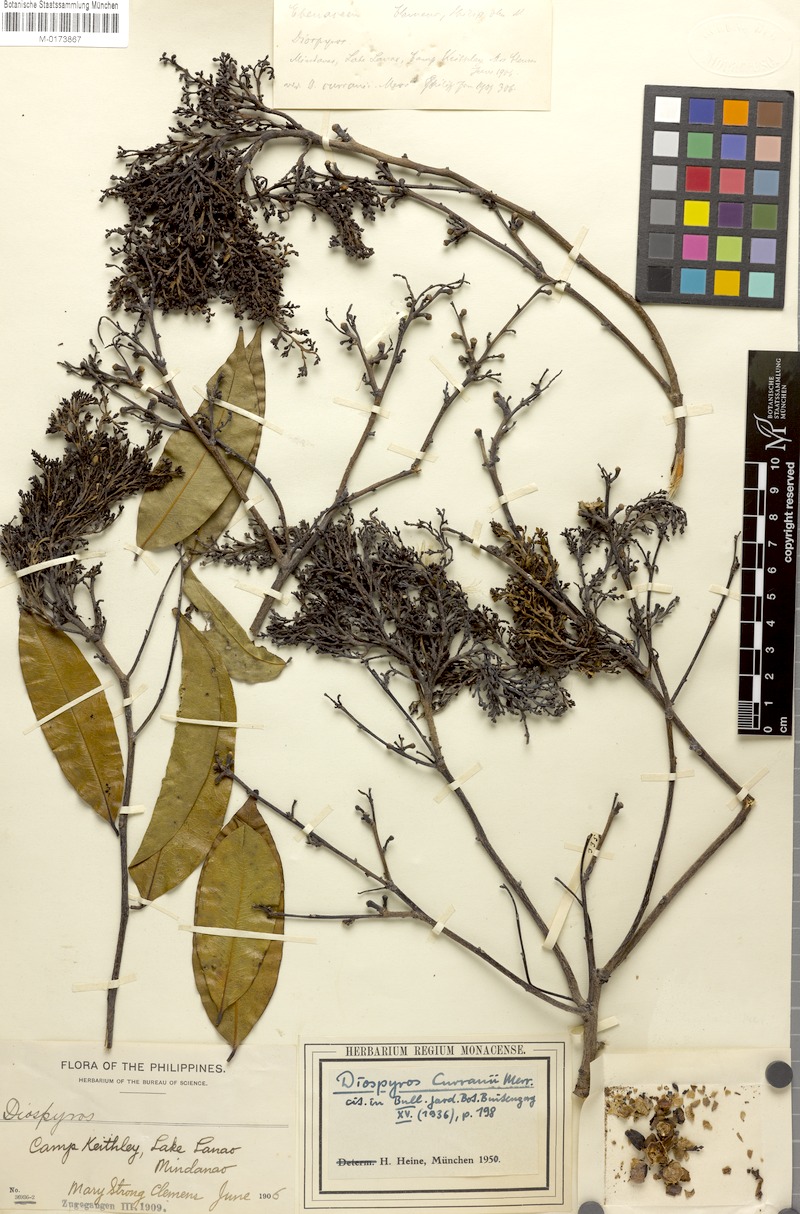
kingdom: Plantae
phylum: Tracheophyta
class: Magnoliopsida
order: Ericales
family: Ebenaceae
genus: Diospyros
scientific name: Diospyros curranii
